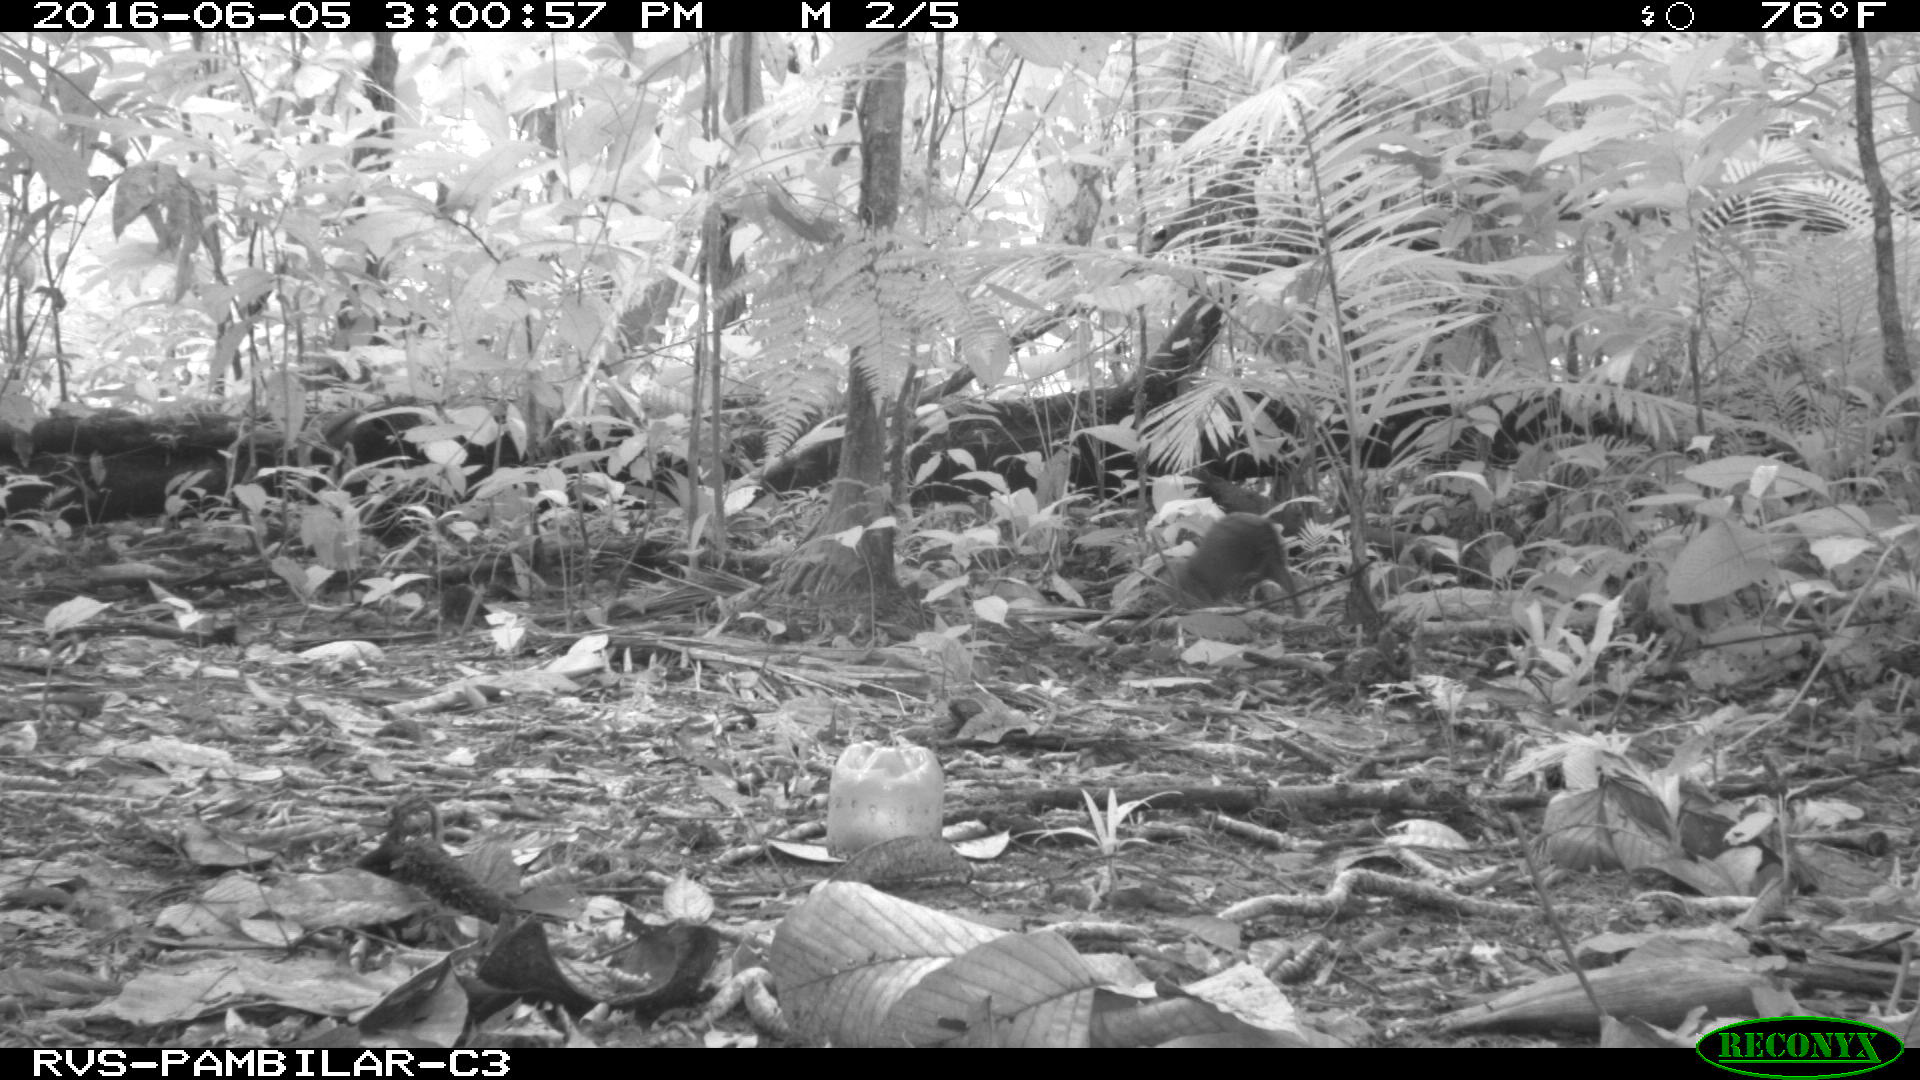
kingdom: Animalia
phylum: Chordata
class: Mammalia
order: Rodentia
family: Dasyproctidae
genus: Dasyprocta
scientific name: Dasyprocta punctata
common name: Central american agouti
